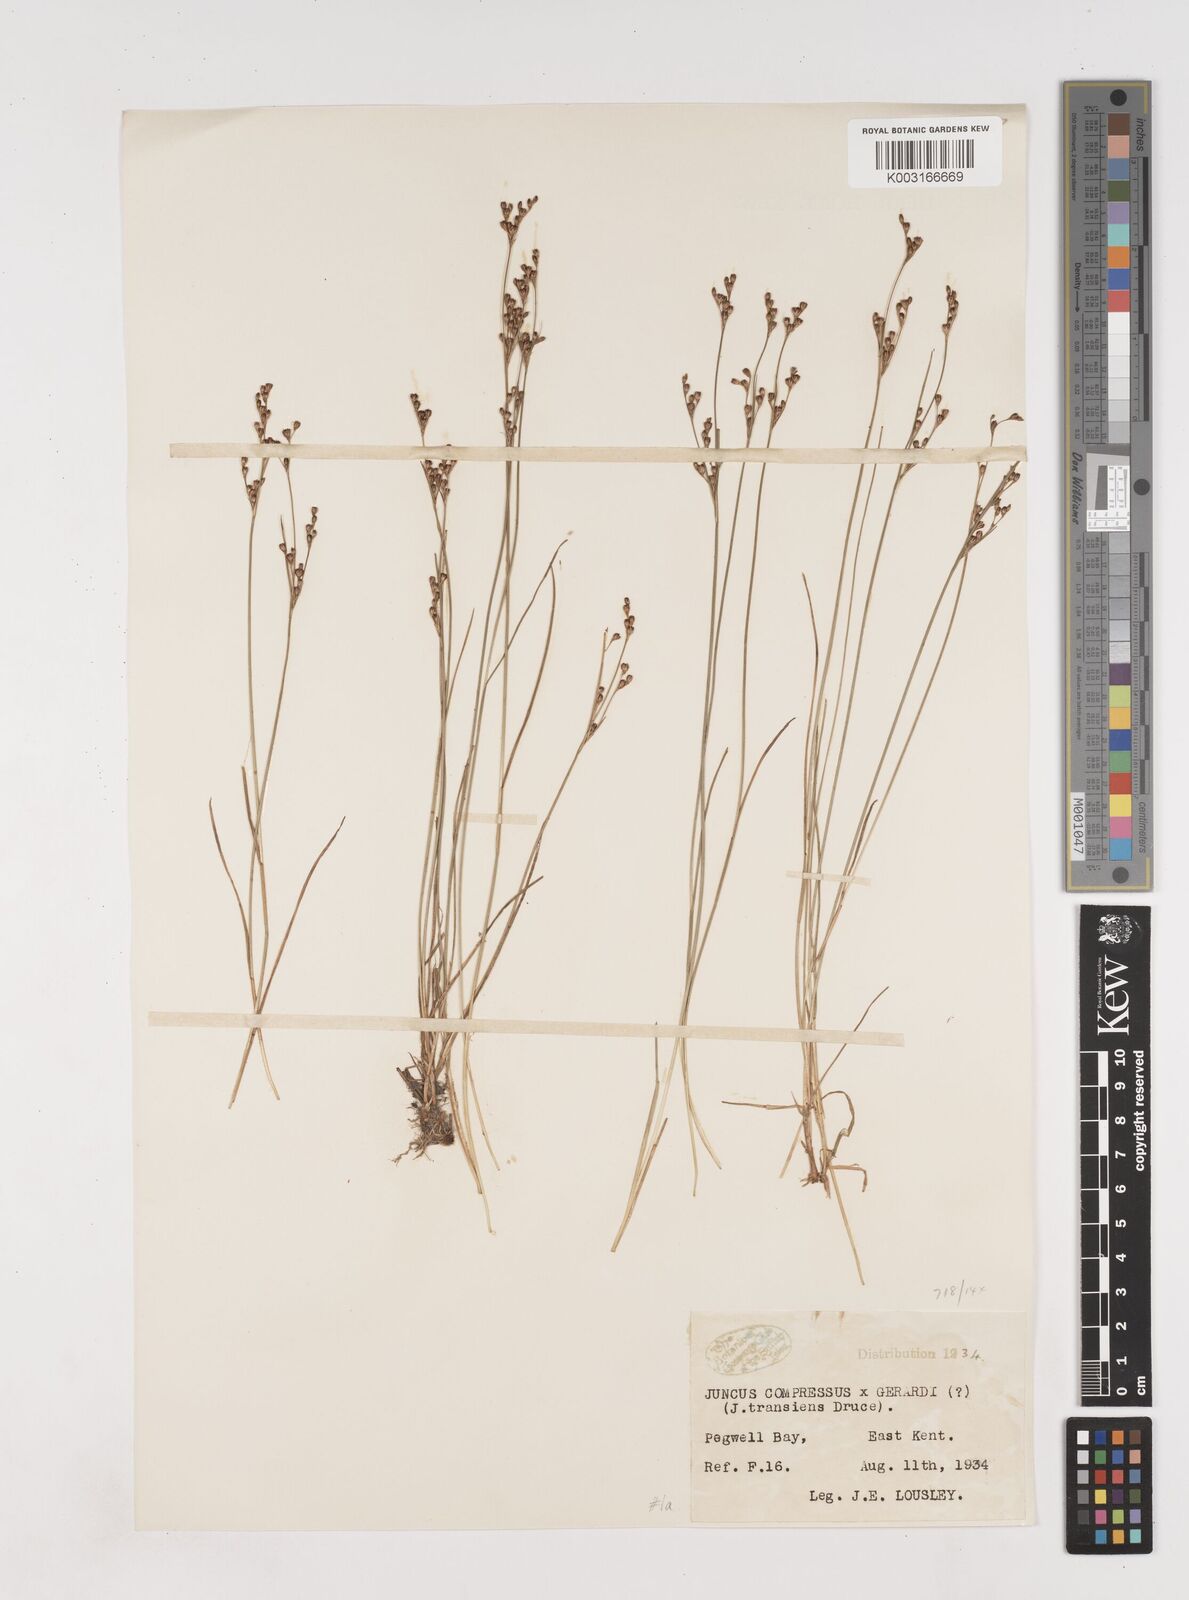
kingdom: Plantae
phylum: Tracheophyta
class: Liliopsida
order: Poales
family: Juncaceae
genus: Juncus
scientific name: Juncus compressus
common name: Round-fruited rush
